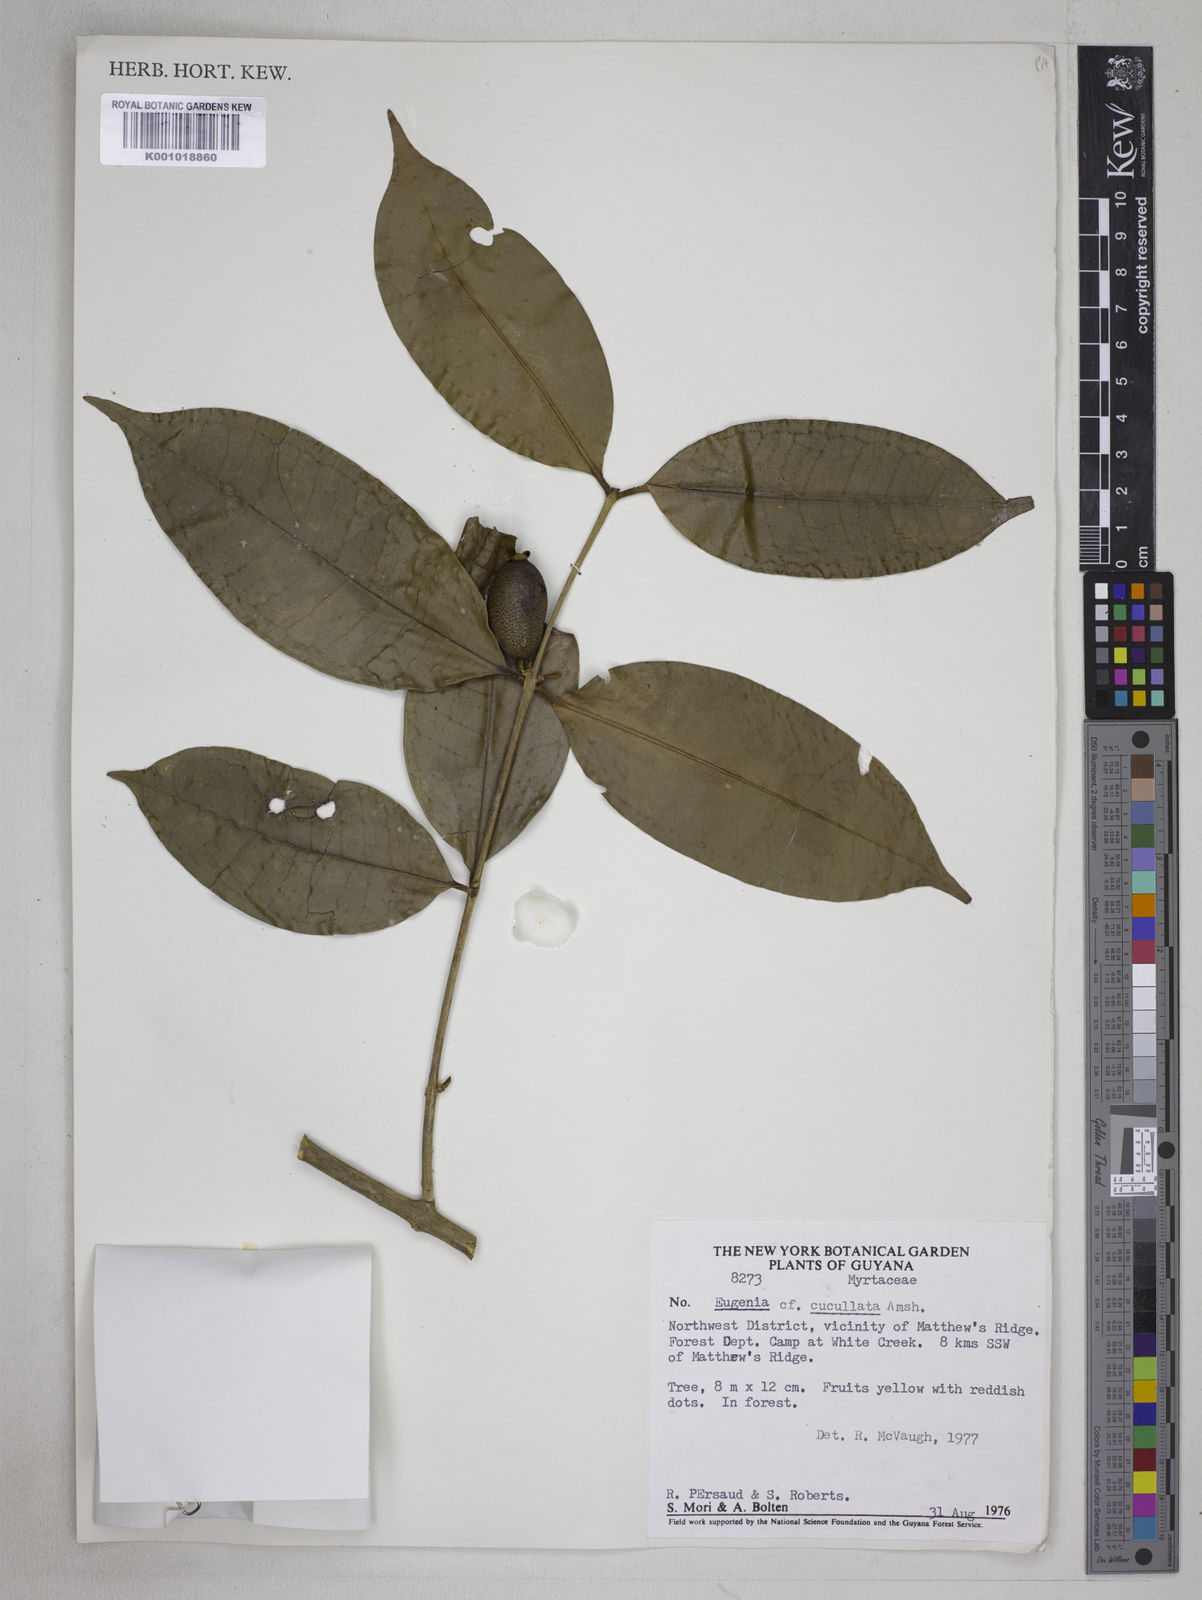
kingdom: Plantae
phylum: Tracheophyta
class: Magnoliopsida
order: Myrtales
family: Myrtaceae
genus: Eugenia
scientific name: Eugenia cucullata
